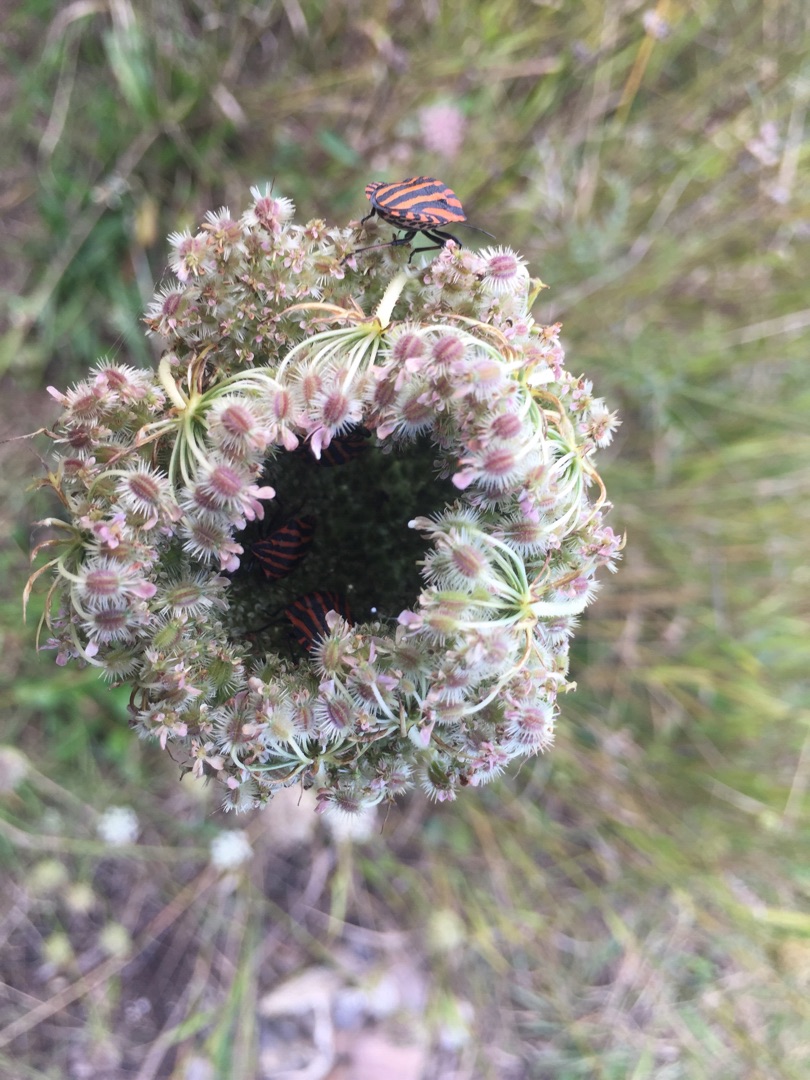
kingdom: Animalia
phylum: Arthropoda
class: Insecta
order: Hemiptera
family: Pentatomidae
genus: Graphosoma
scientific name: Graphosoma italicum
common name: Stribetæge
